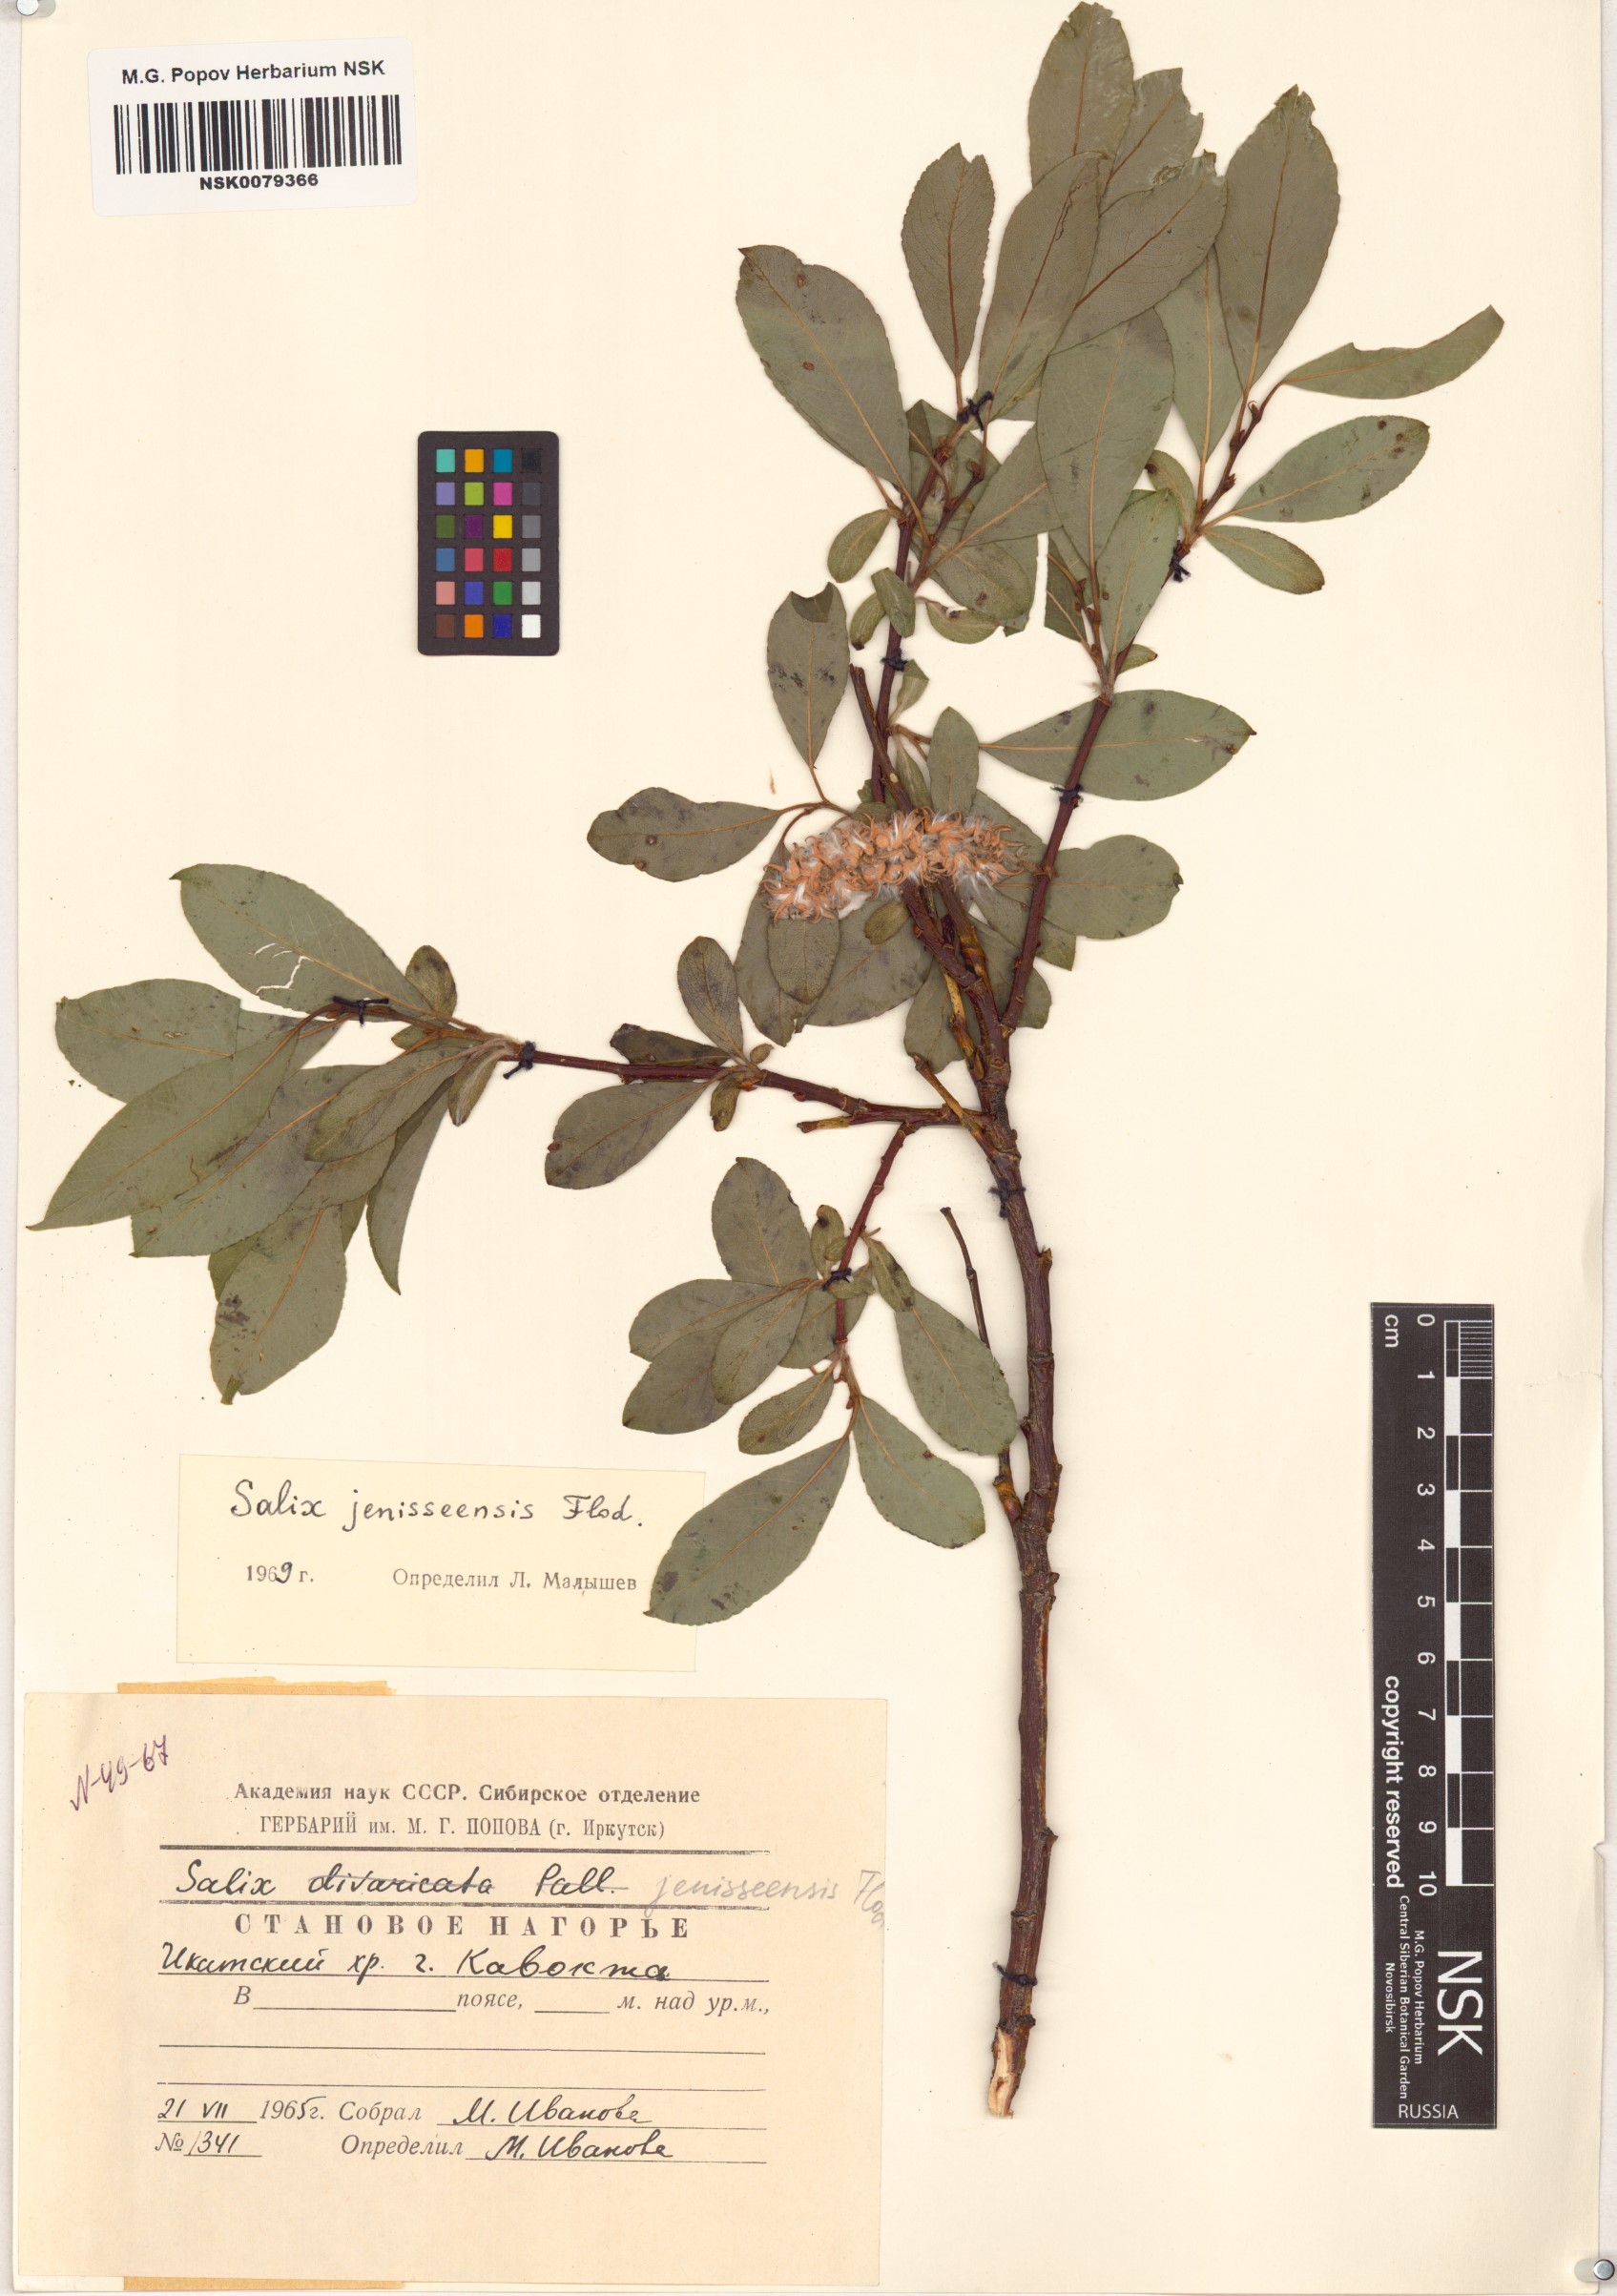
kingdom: Plantae
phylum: Tracheophyta
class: Magnoliopsida
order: Malpighiales
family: Salicaceae
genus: Salix
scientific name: Salix jenisseensis
